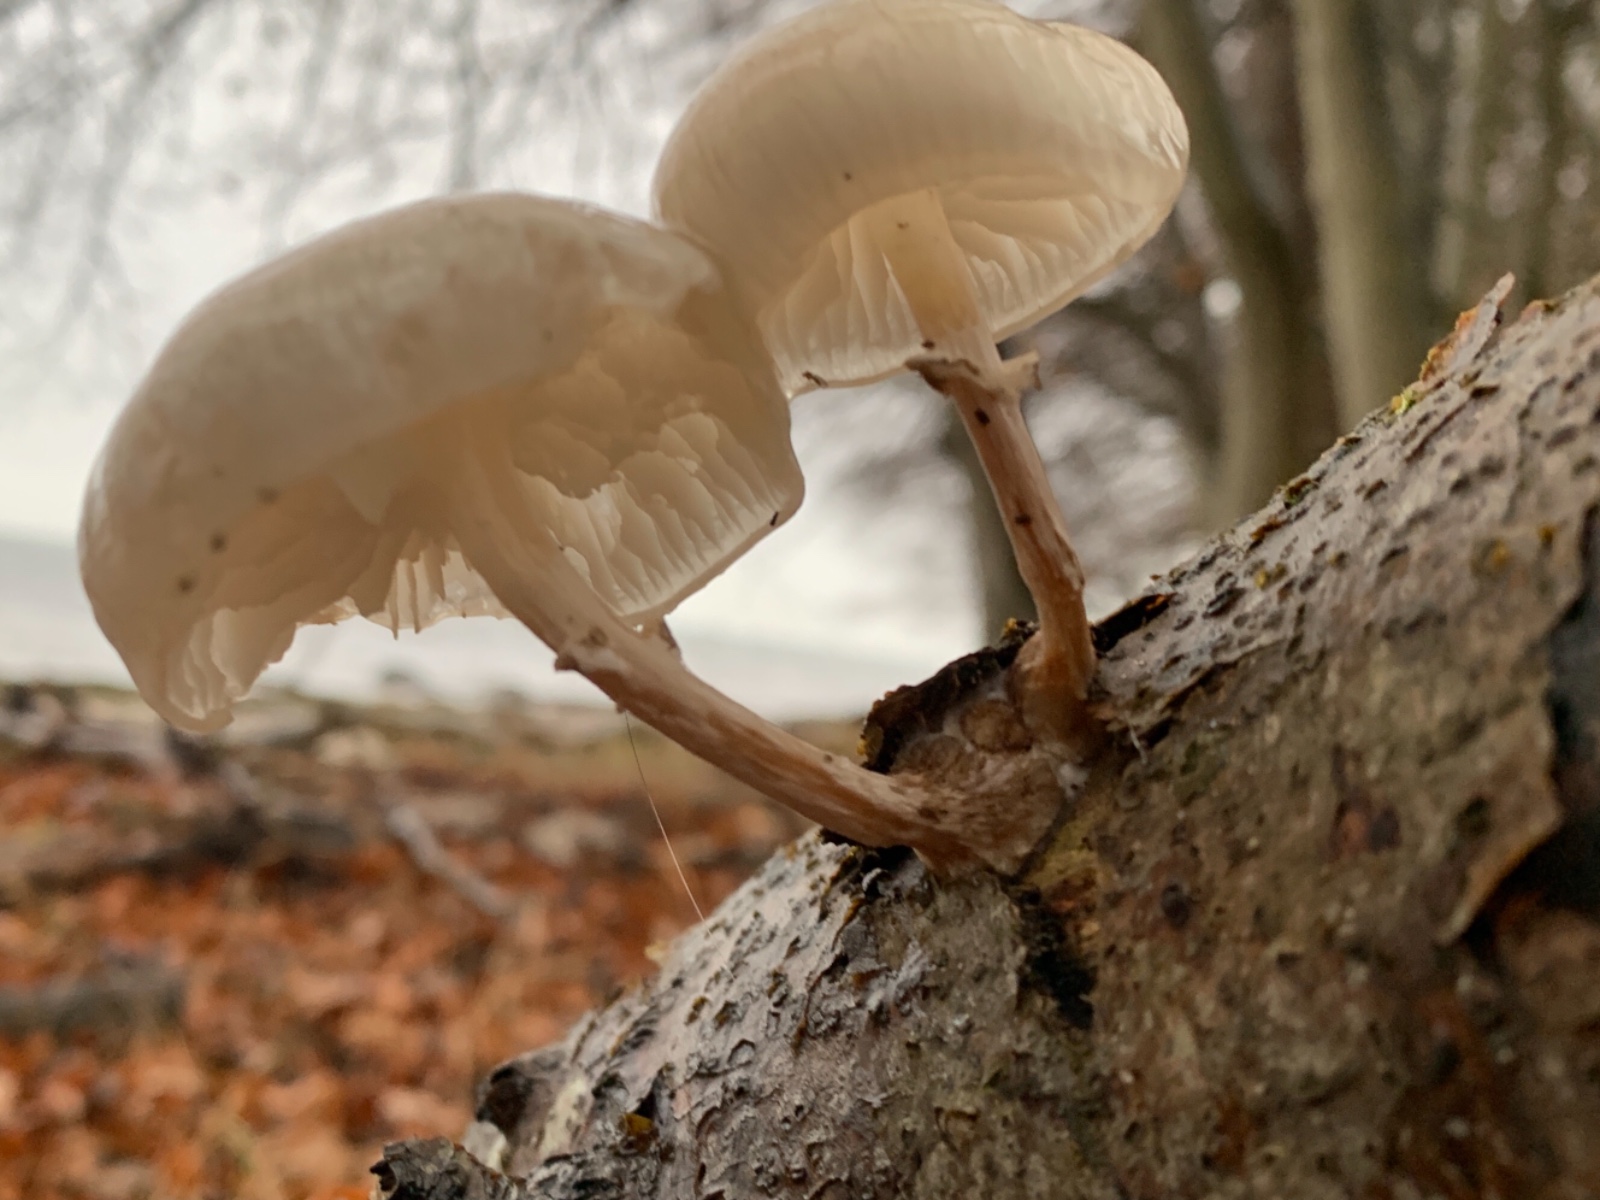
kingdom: Fungi
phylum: Basidiomycota
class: Agaricomycetes
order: Agaricales
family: Physalacriaceae
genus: Mucidula
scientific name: Mucidula mucida
